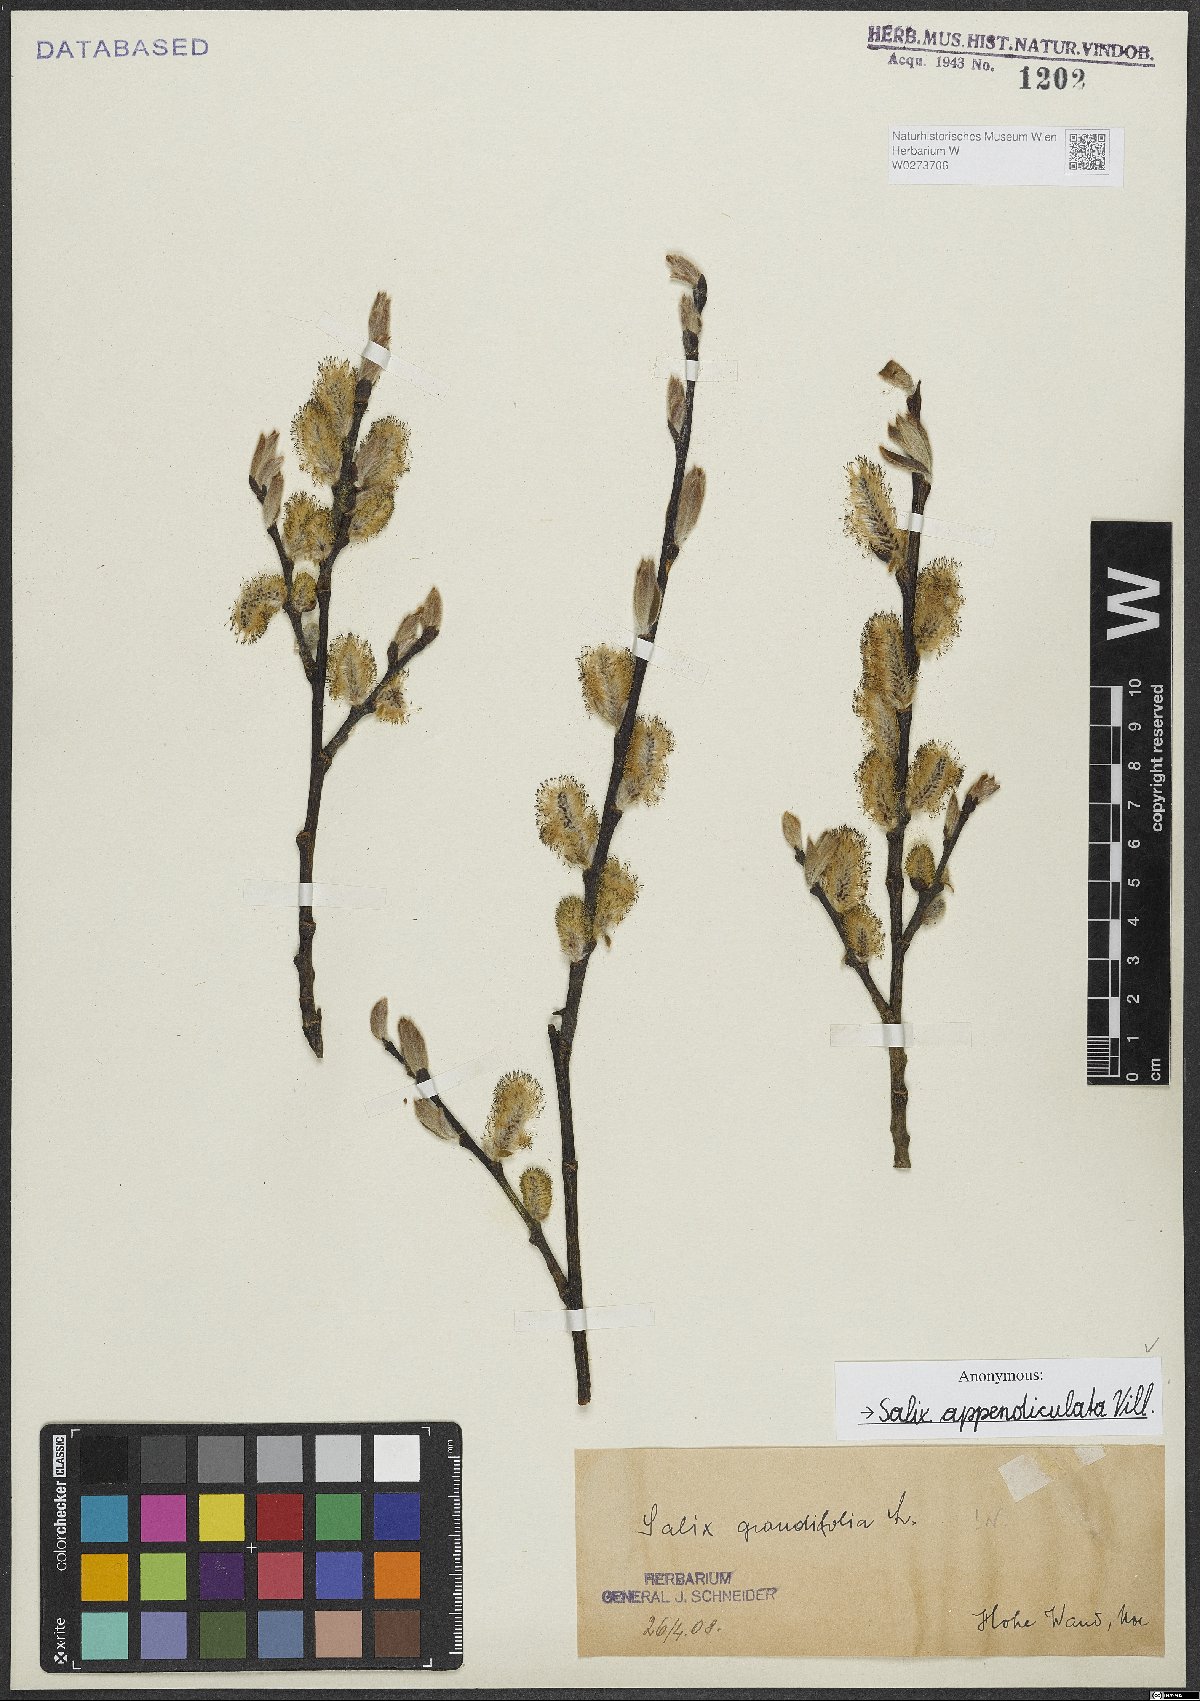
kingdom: Plantae
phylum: Tracheophyta
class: Magnoliopsida
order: Malpighiales
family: Salicaceae
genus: Salix
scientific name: Salix appendiculata
